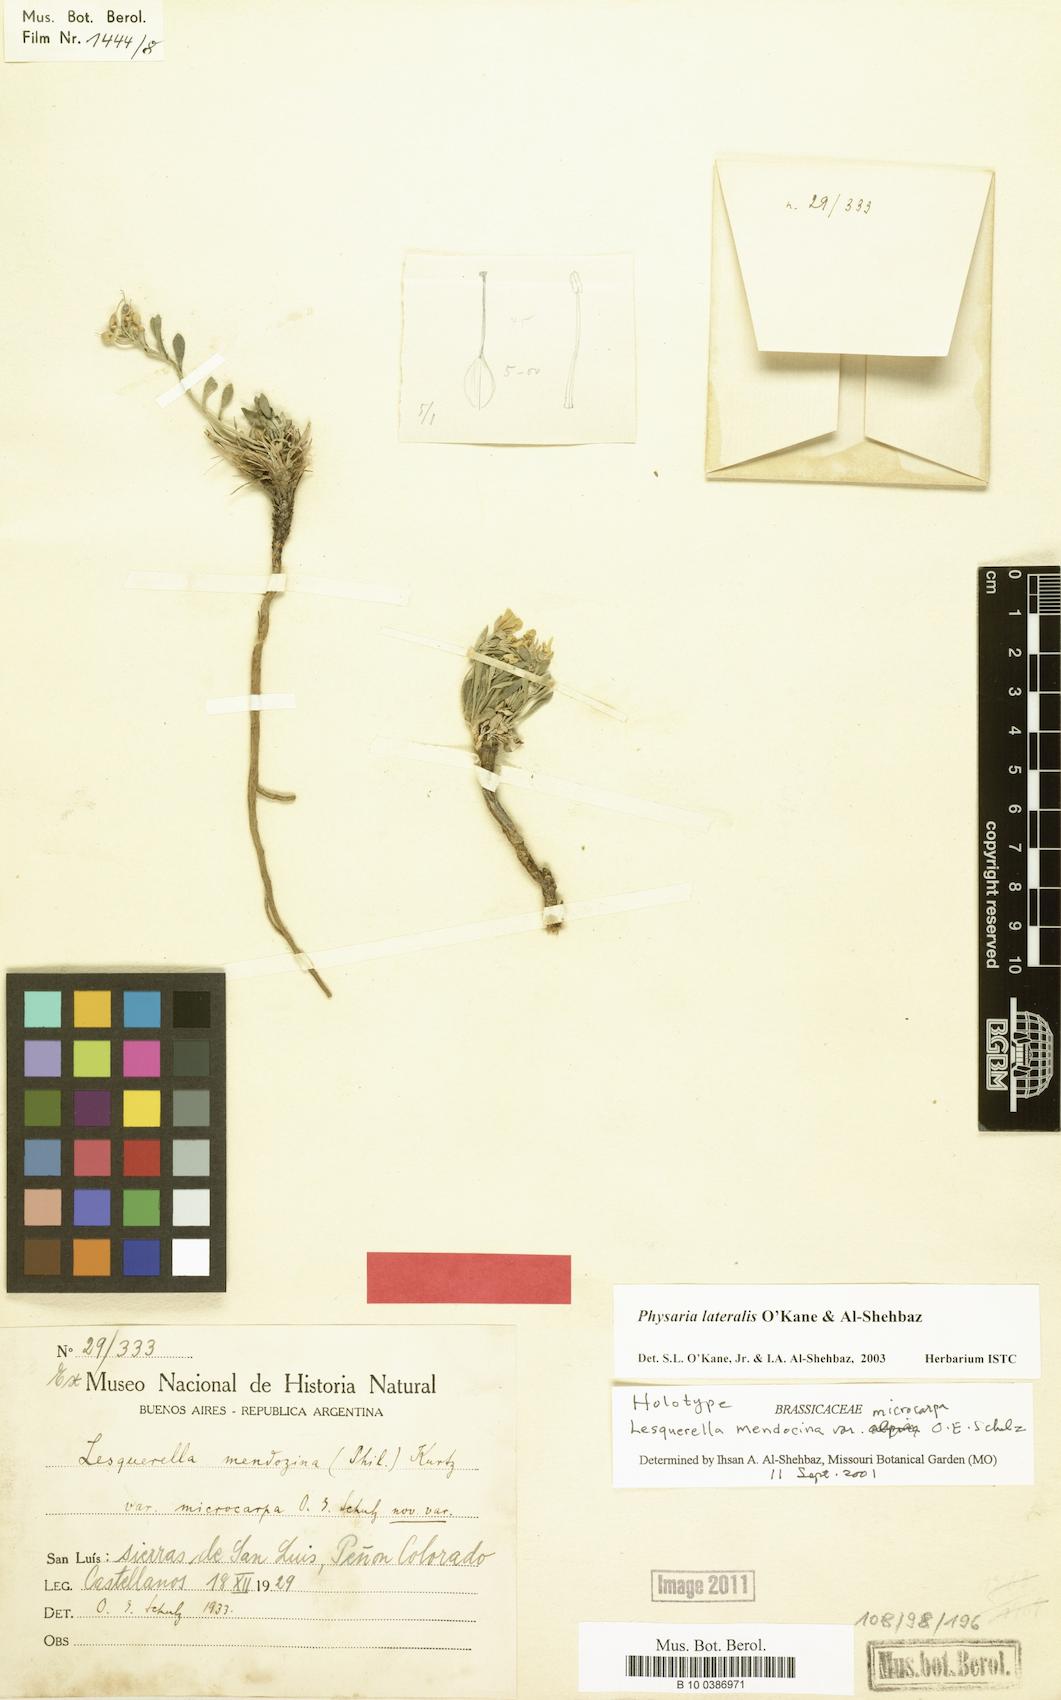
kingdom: Plantae
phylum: Tracheophyta
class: Magnoliopsida
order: Brassicales
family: Brassicaceae
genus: Physaria
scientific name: Physaria lateralis
